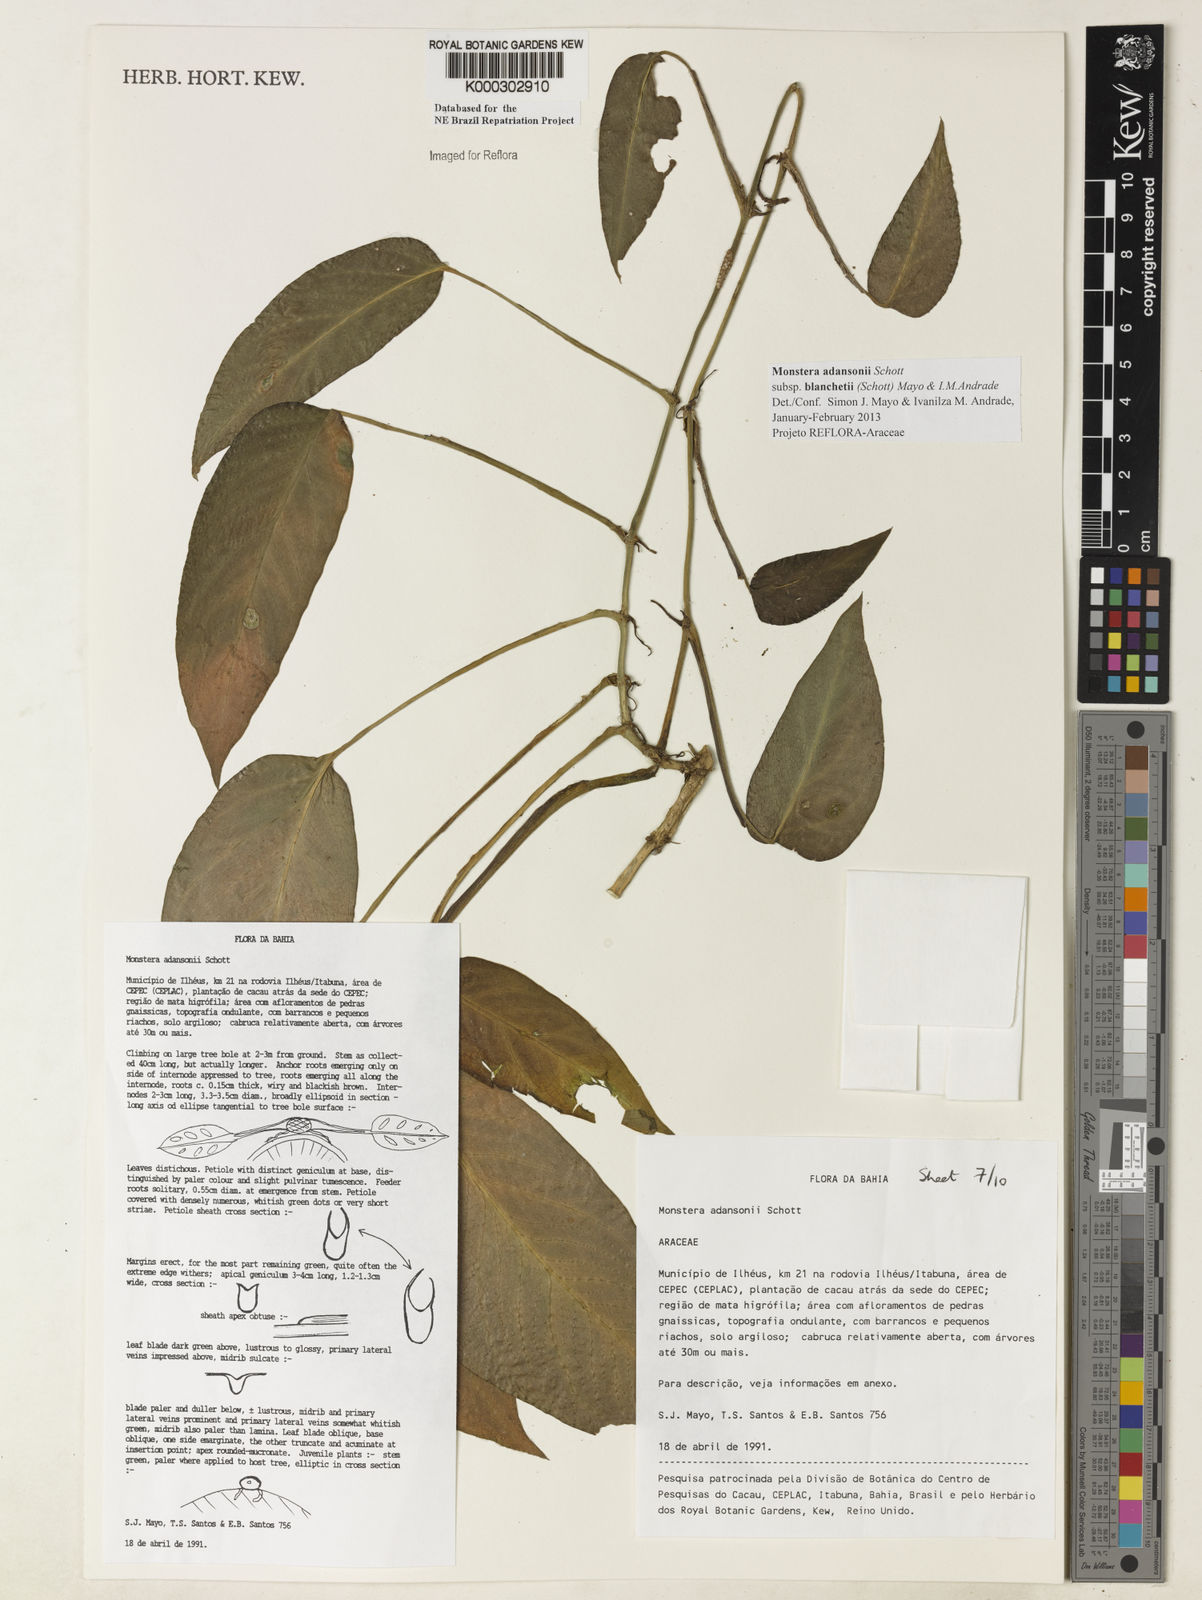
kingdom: Plantae
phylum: Tracheophyta
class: Liliopsida
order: Alismatales
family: Araceae
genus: Monstera
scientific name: Monstera adansonii
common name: Tarovine
